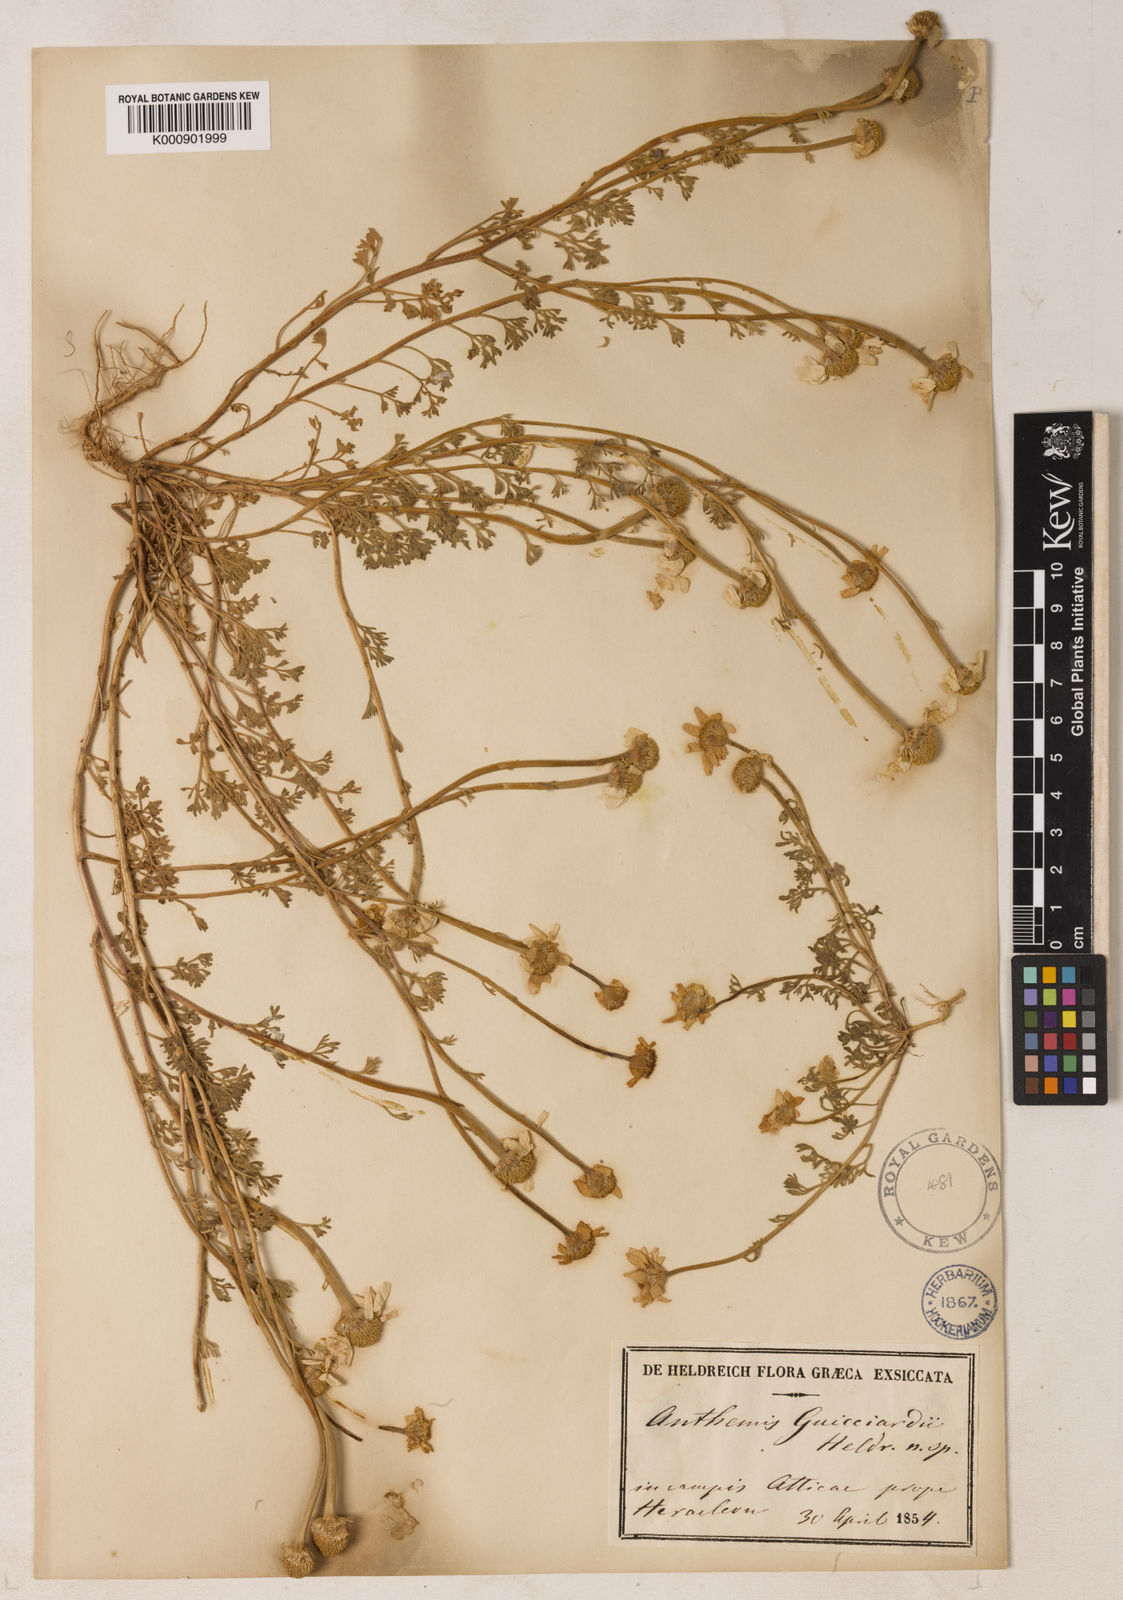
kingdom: Plantae
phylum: Tracheophyta
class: Magnoliopsida
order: Asterales
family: Asteraceae
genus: Anthemis
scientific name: Anthemis tomentosa
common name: Woolly chamomile
